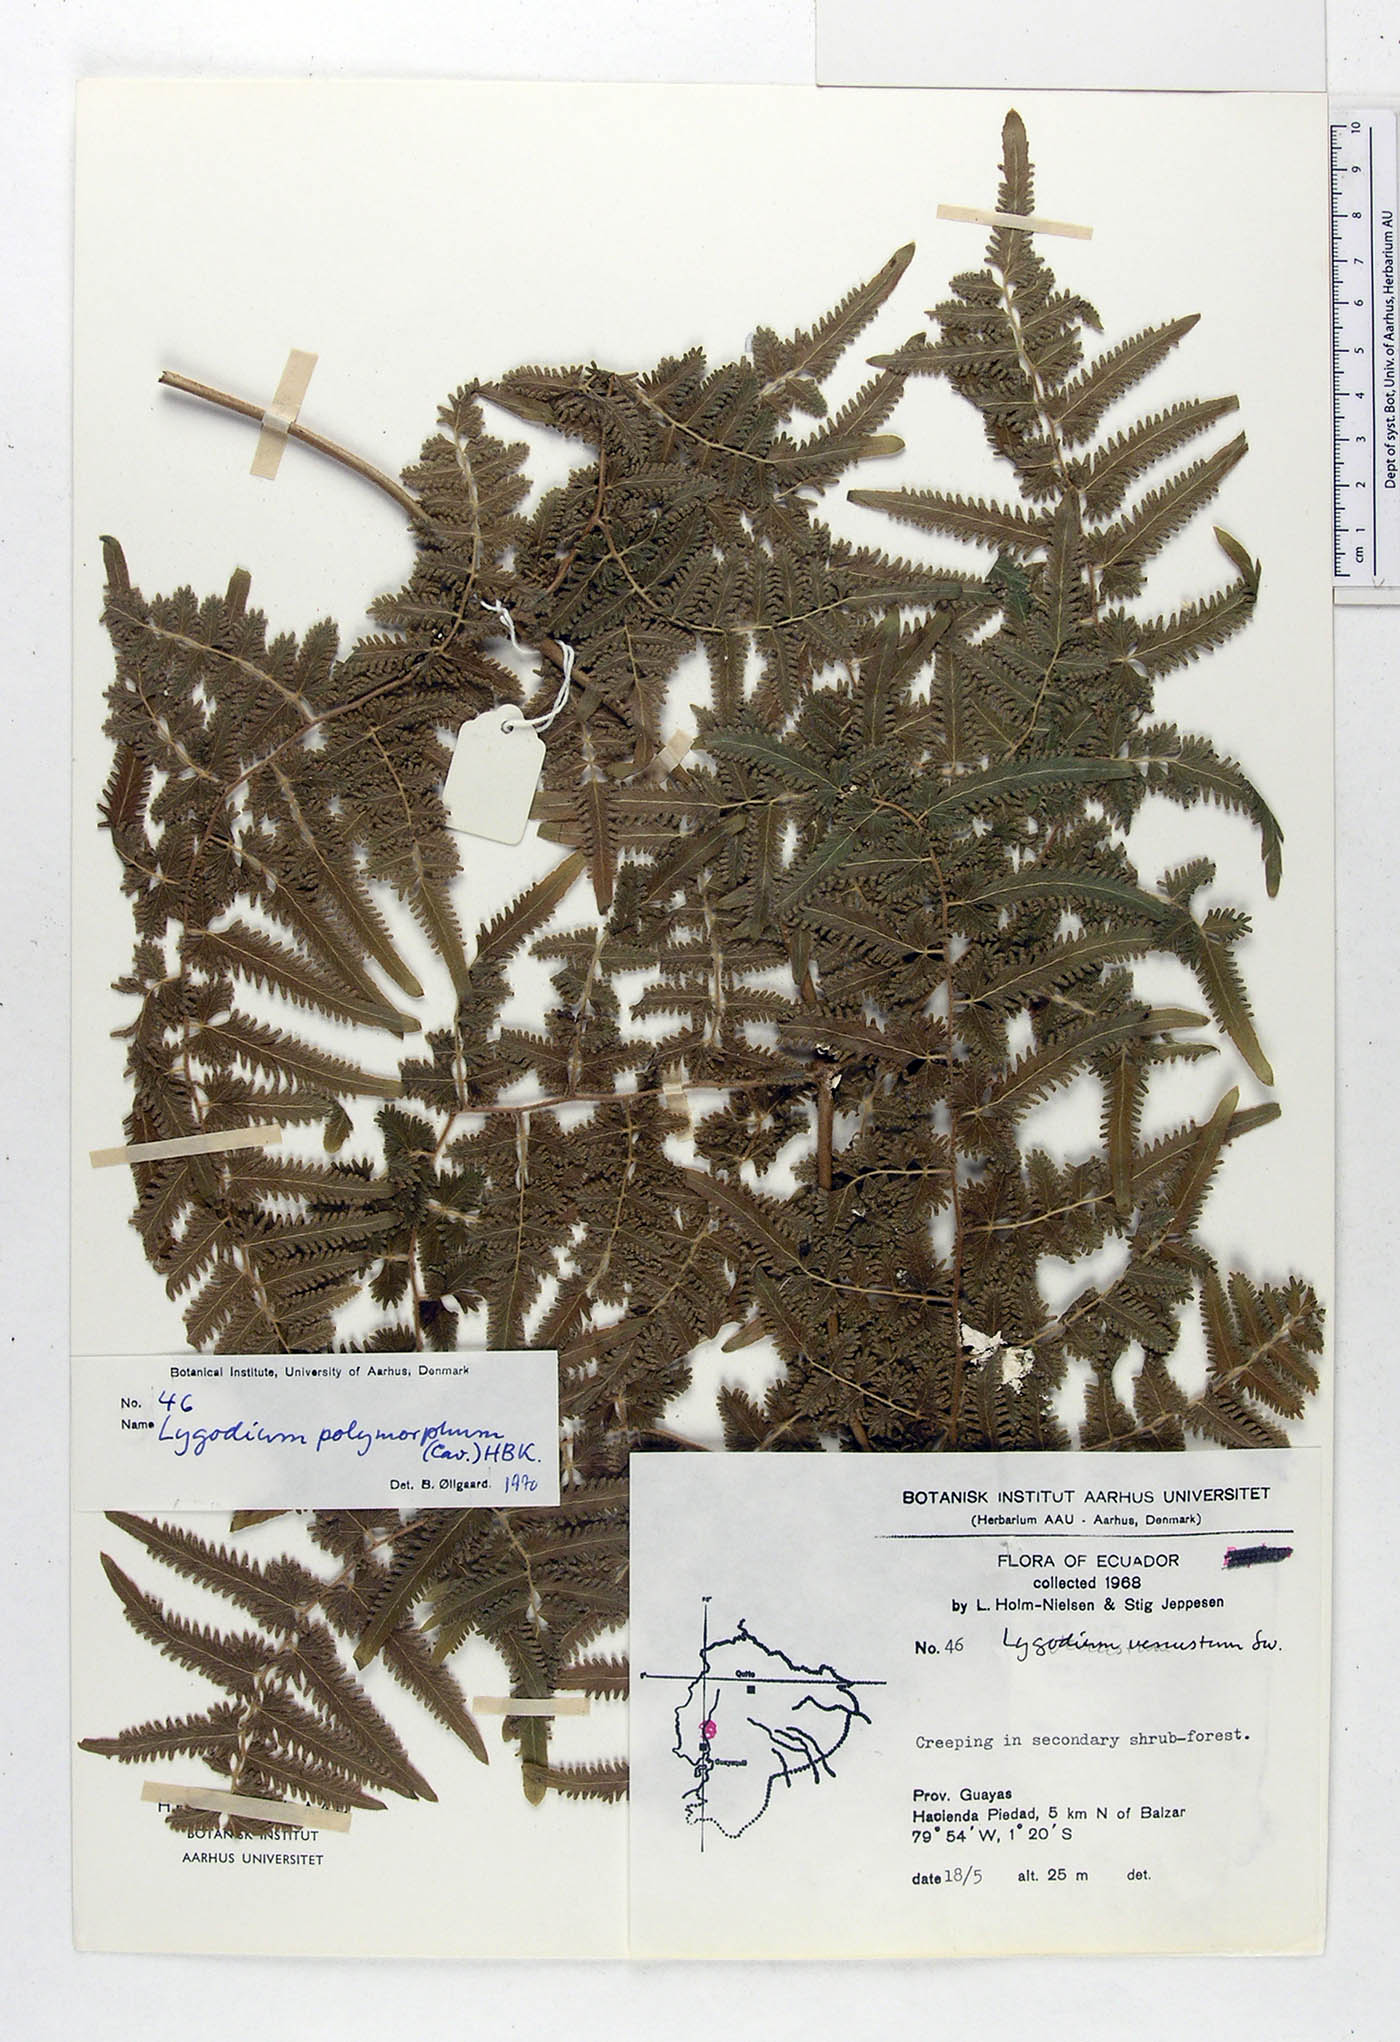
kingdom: Plantae
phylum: Tracheophyta
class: Polypodiopsida
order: Schizaeales
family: Lygodiaceae
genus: Lygodium
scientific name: Lygodium flexuosum
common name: Maidenhair creeper
